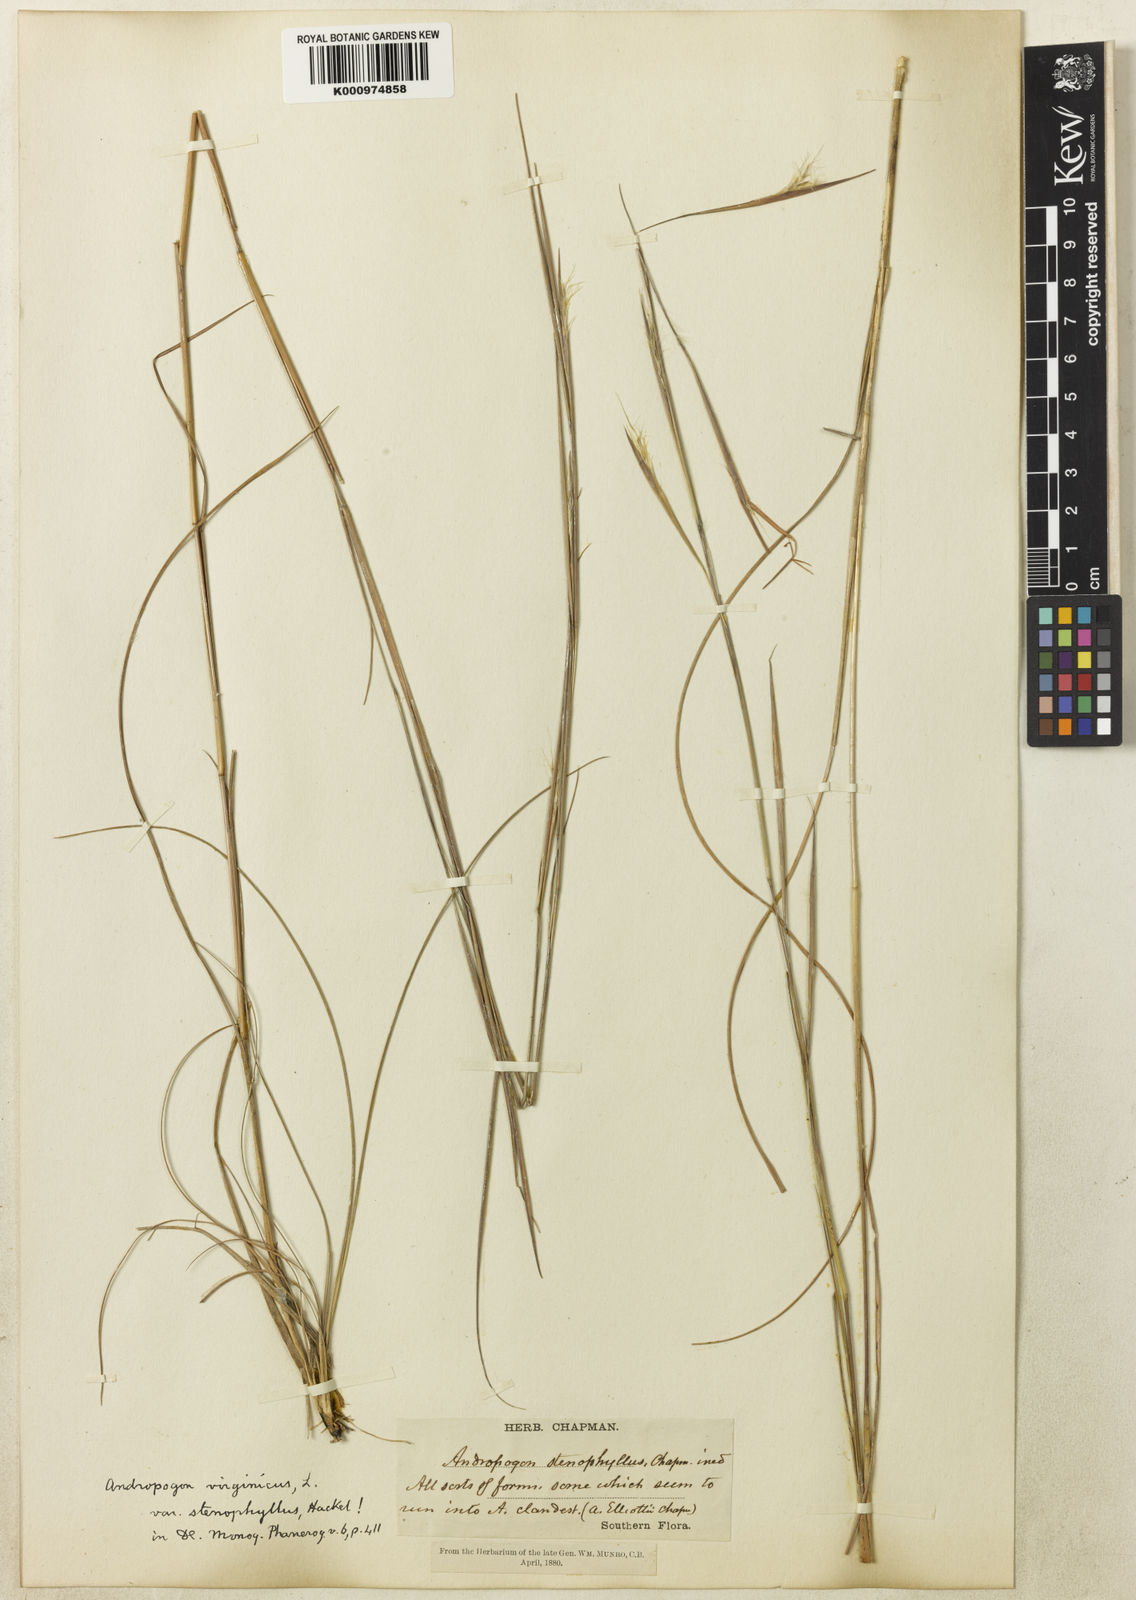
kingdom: Plantae
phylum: Tracheophyta
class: Liliopsida
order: Poales
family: Poaceae
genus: Andropogon
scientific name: Andropogon perangustatus
